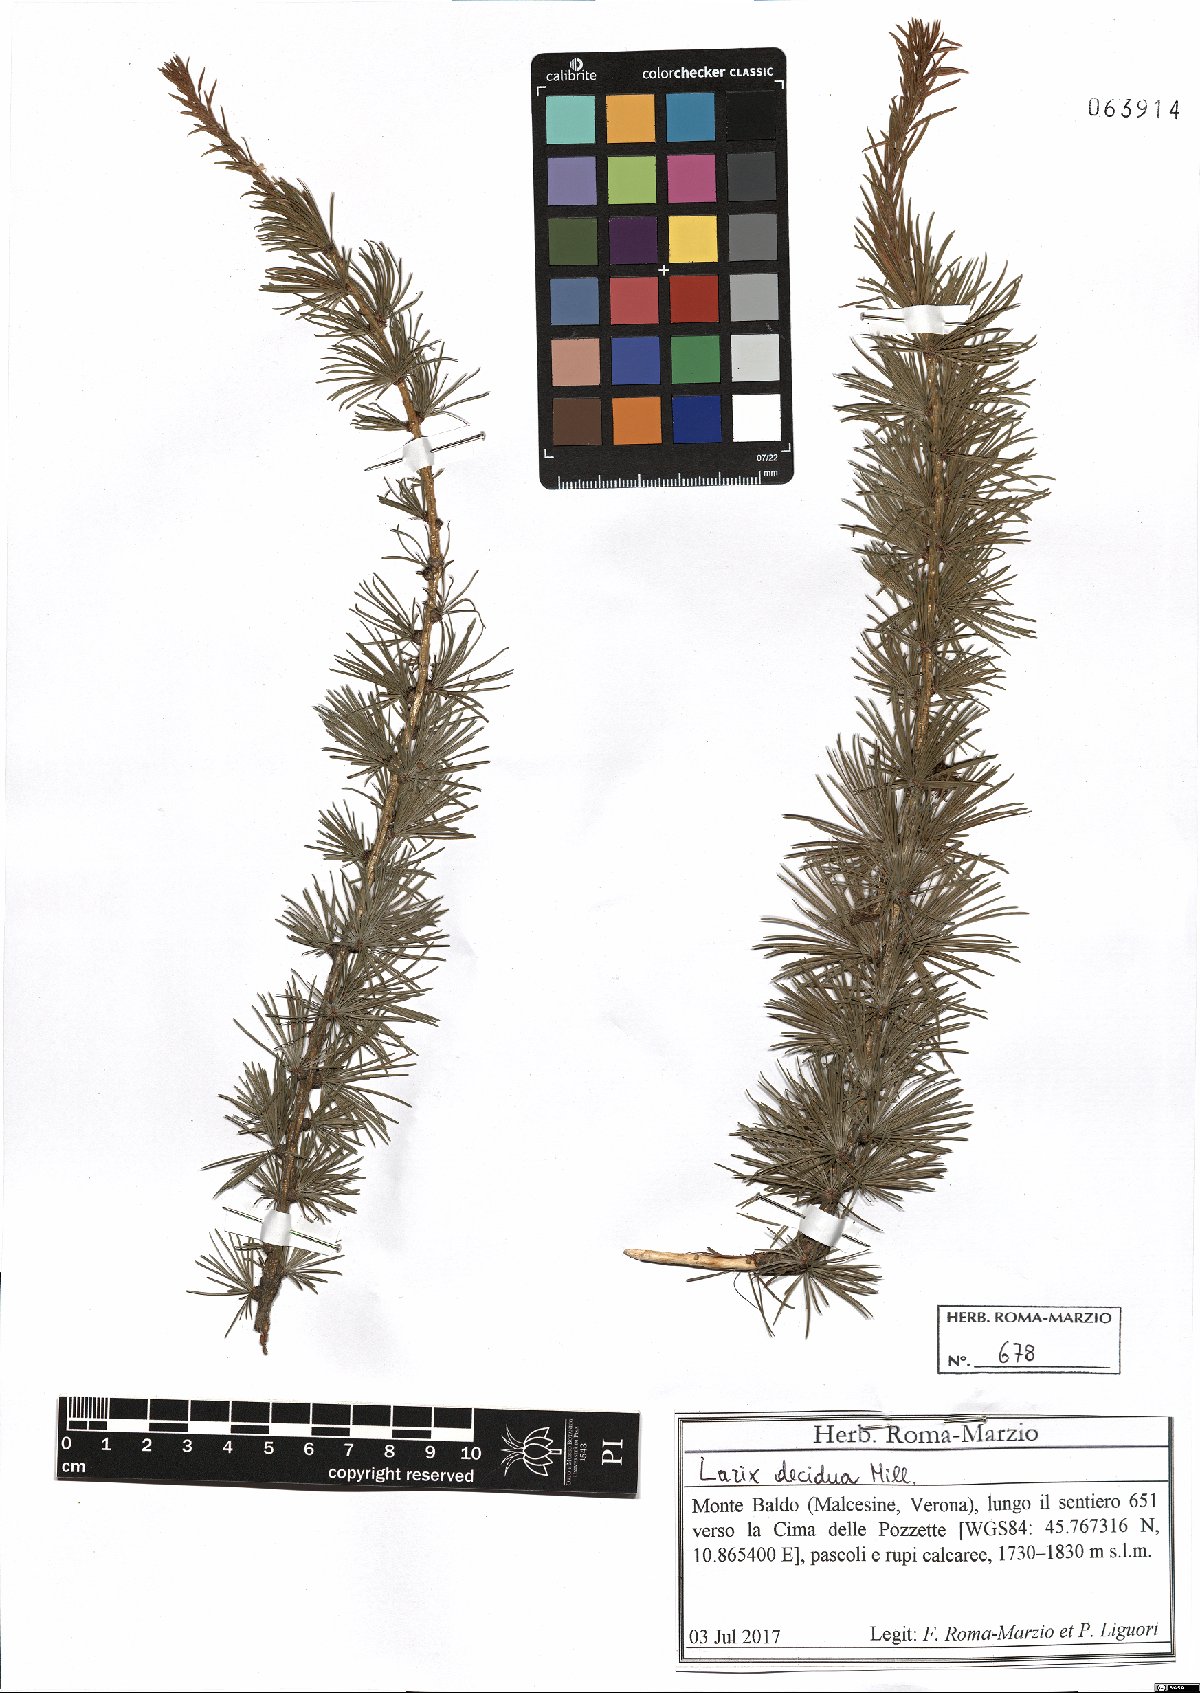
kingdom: Plantae
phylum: Tracheophyta
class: Pinopsida
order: Pinales
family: Pinaceae
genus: Larix
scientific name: Larix decidua
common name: European larch
